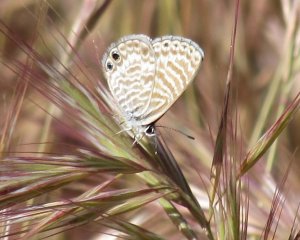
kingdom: Animalia
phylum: Arthropoda
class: Insecta
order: Lepidoptera
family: Lycaenidae
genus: Leptotes
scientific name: Leptotes marina
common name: Marine Blue
